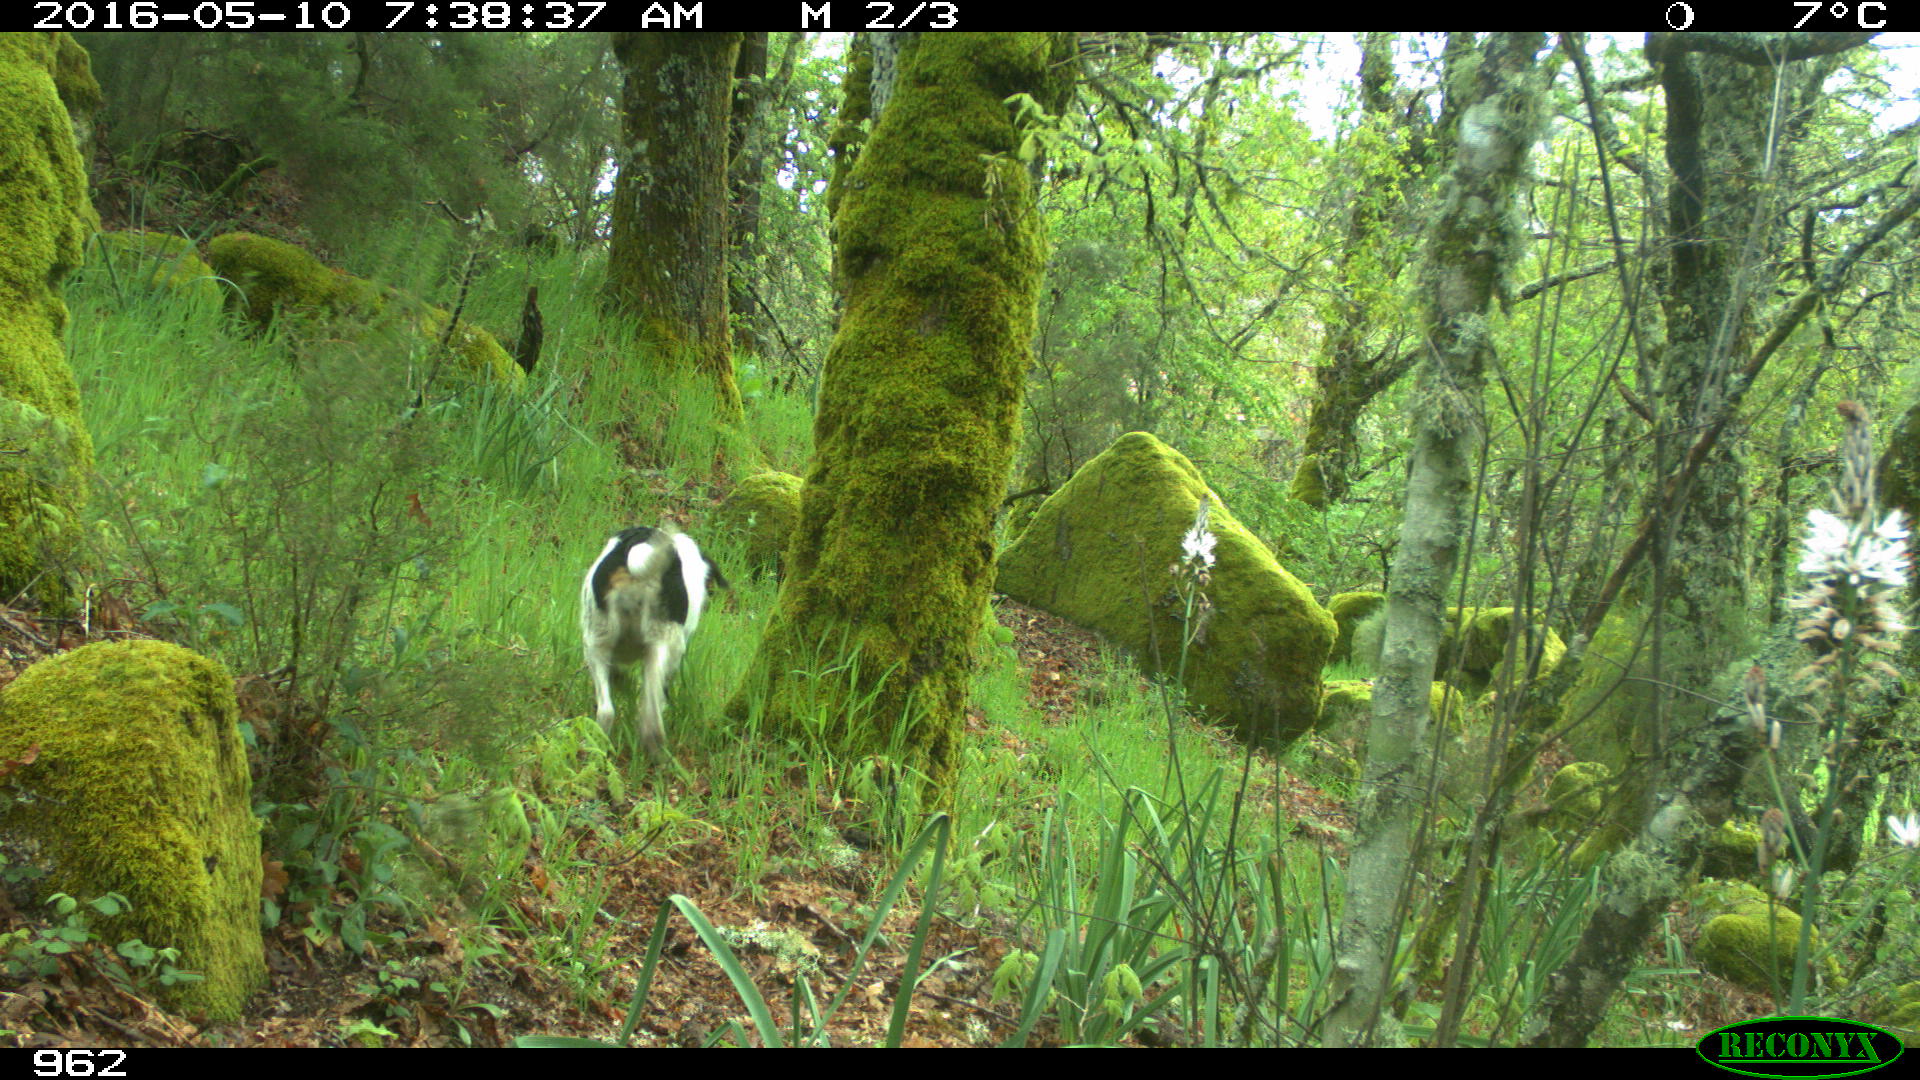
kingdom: Animalia
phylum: Chordata
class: Mammalia
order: Carnivora
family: Canidae
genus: Canis
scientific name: Canis lupus
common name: Gray wolf
